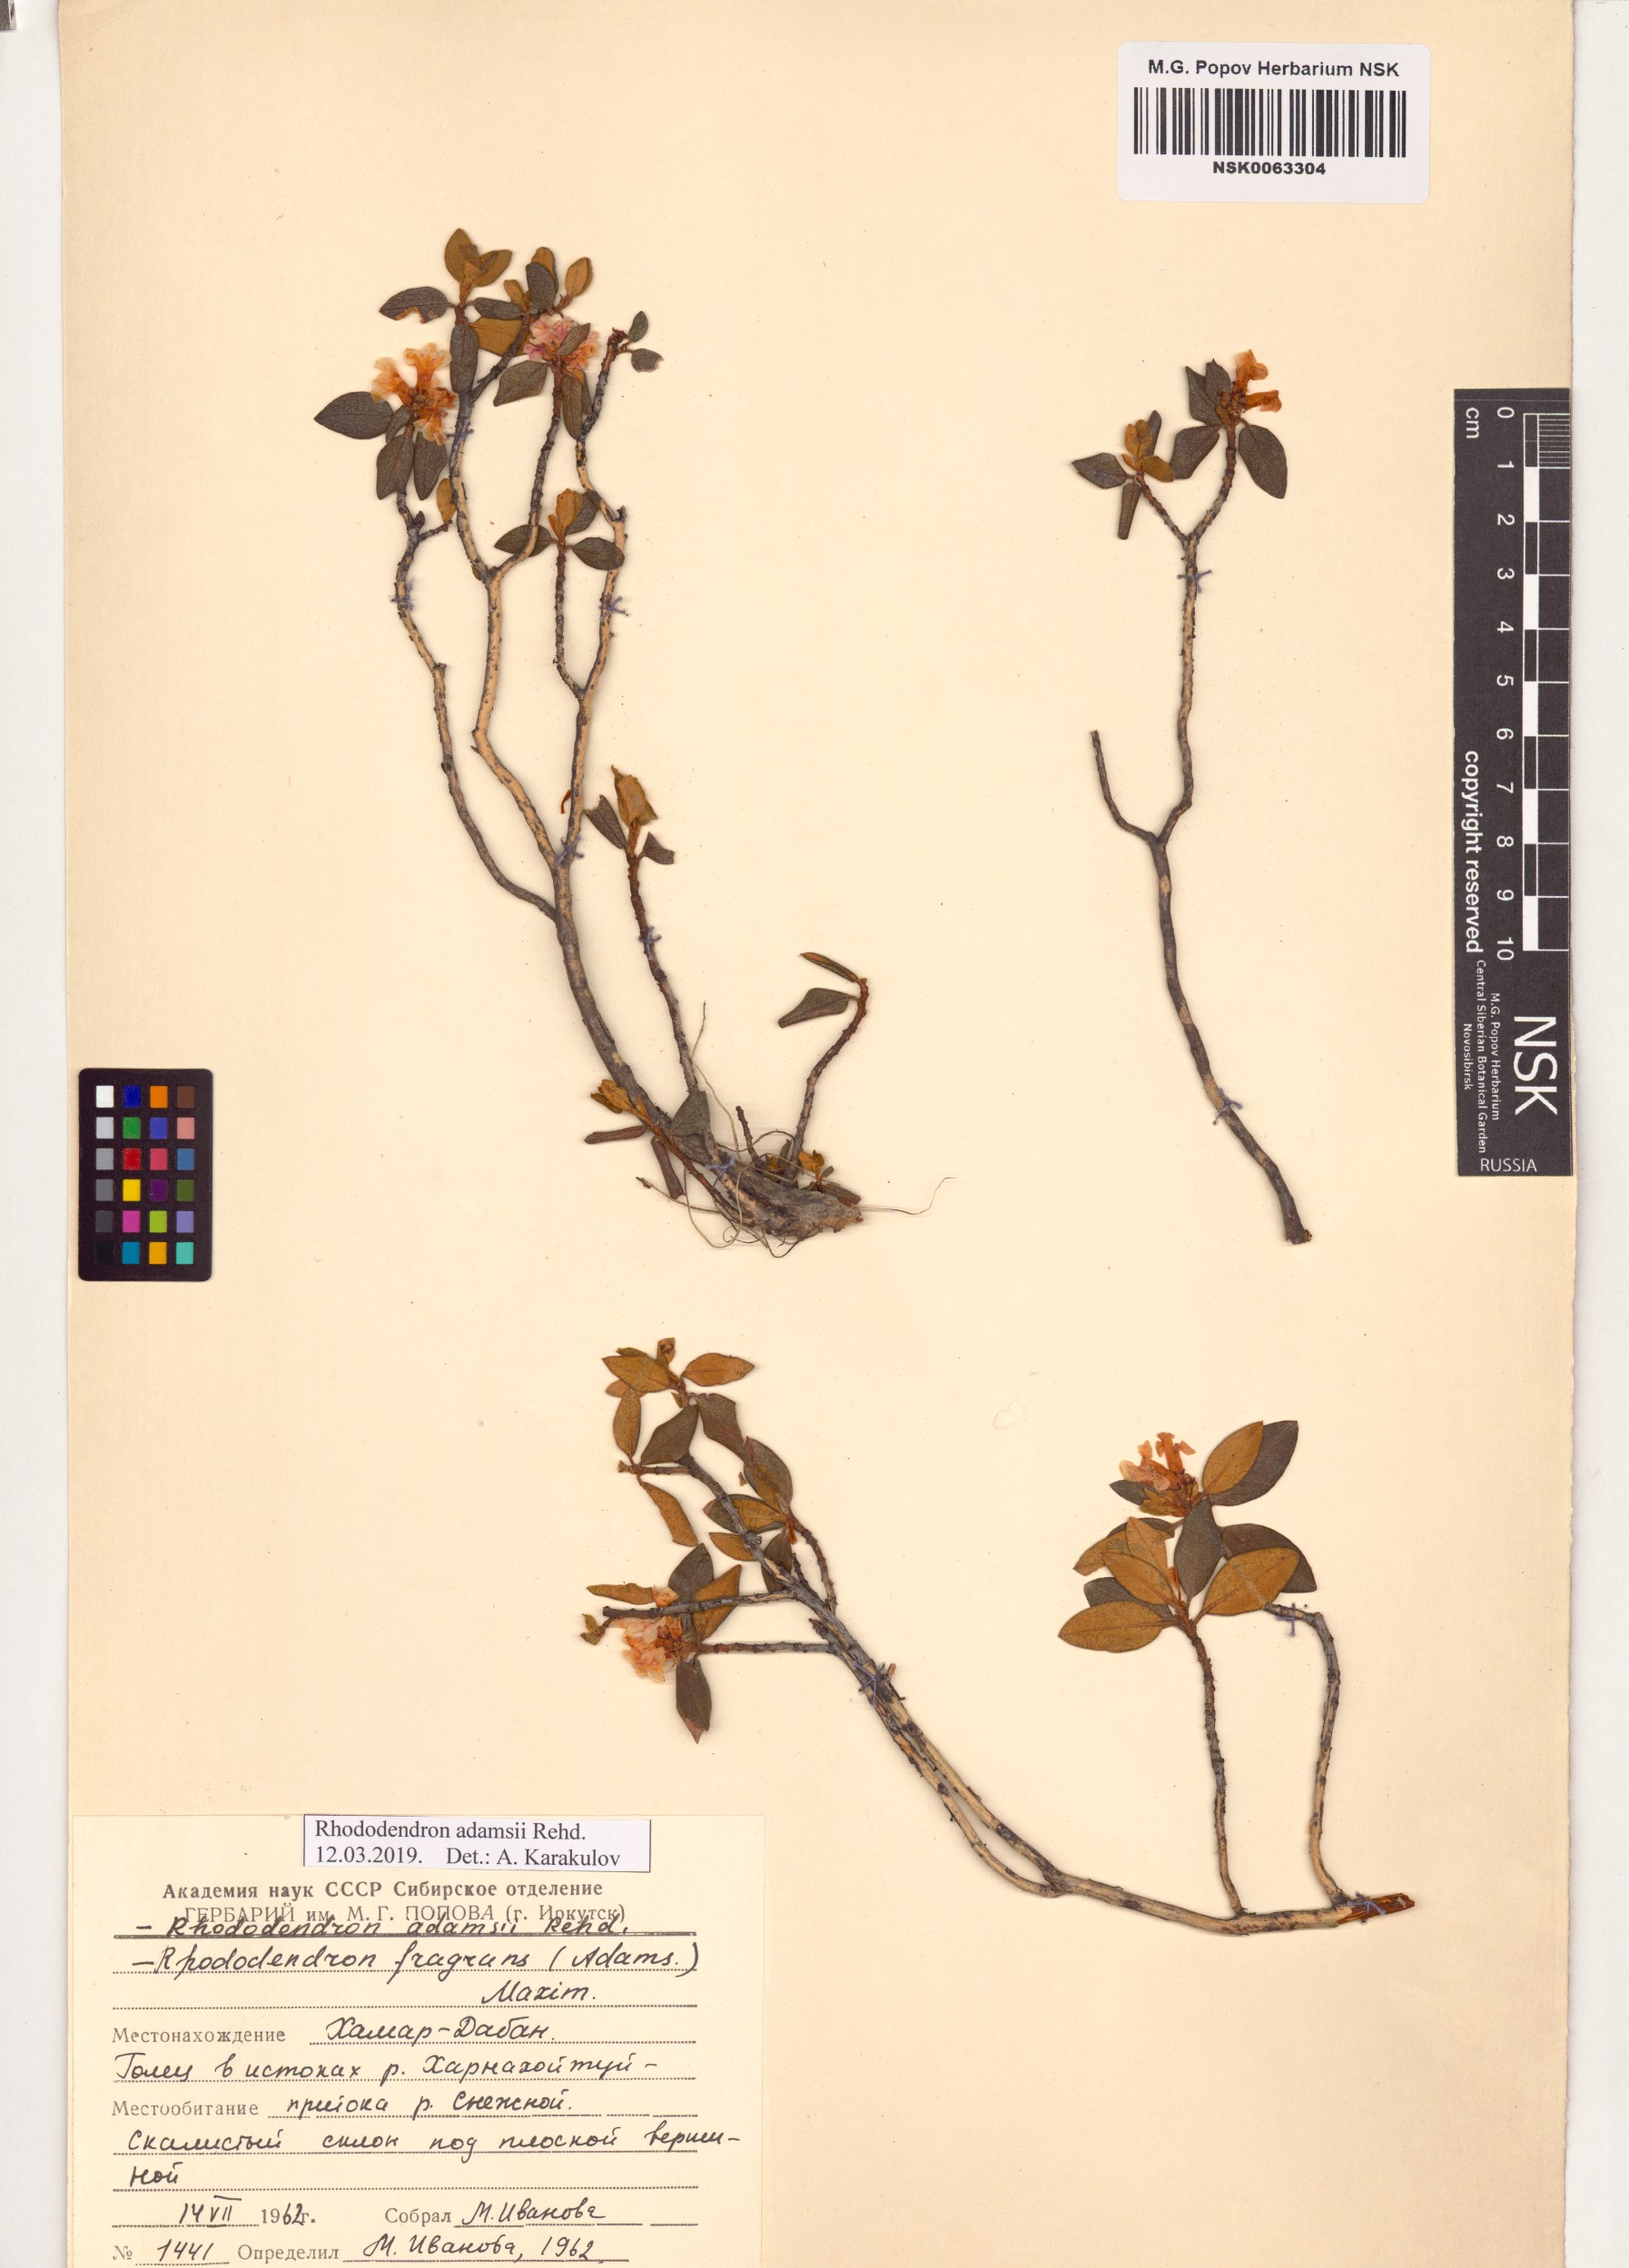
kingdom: Plantae
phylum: Tracheophyta
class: Magnoliopsida
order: Ericales
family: Ericaceae
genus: Rhododendron
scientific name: Rhododendron adamsii
